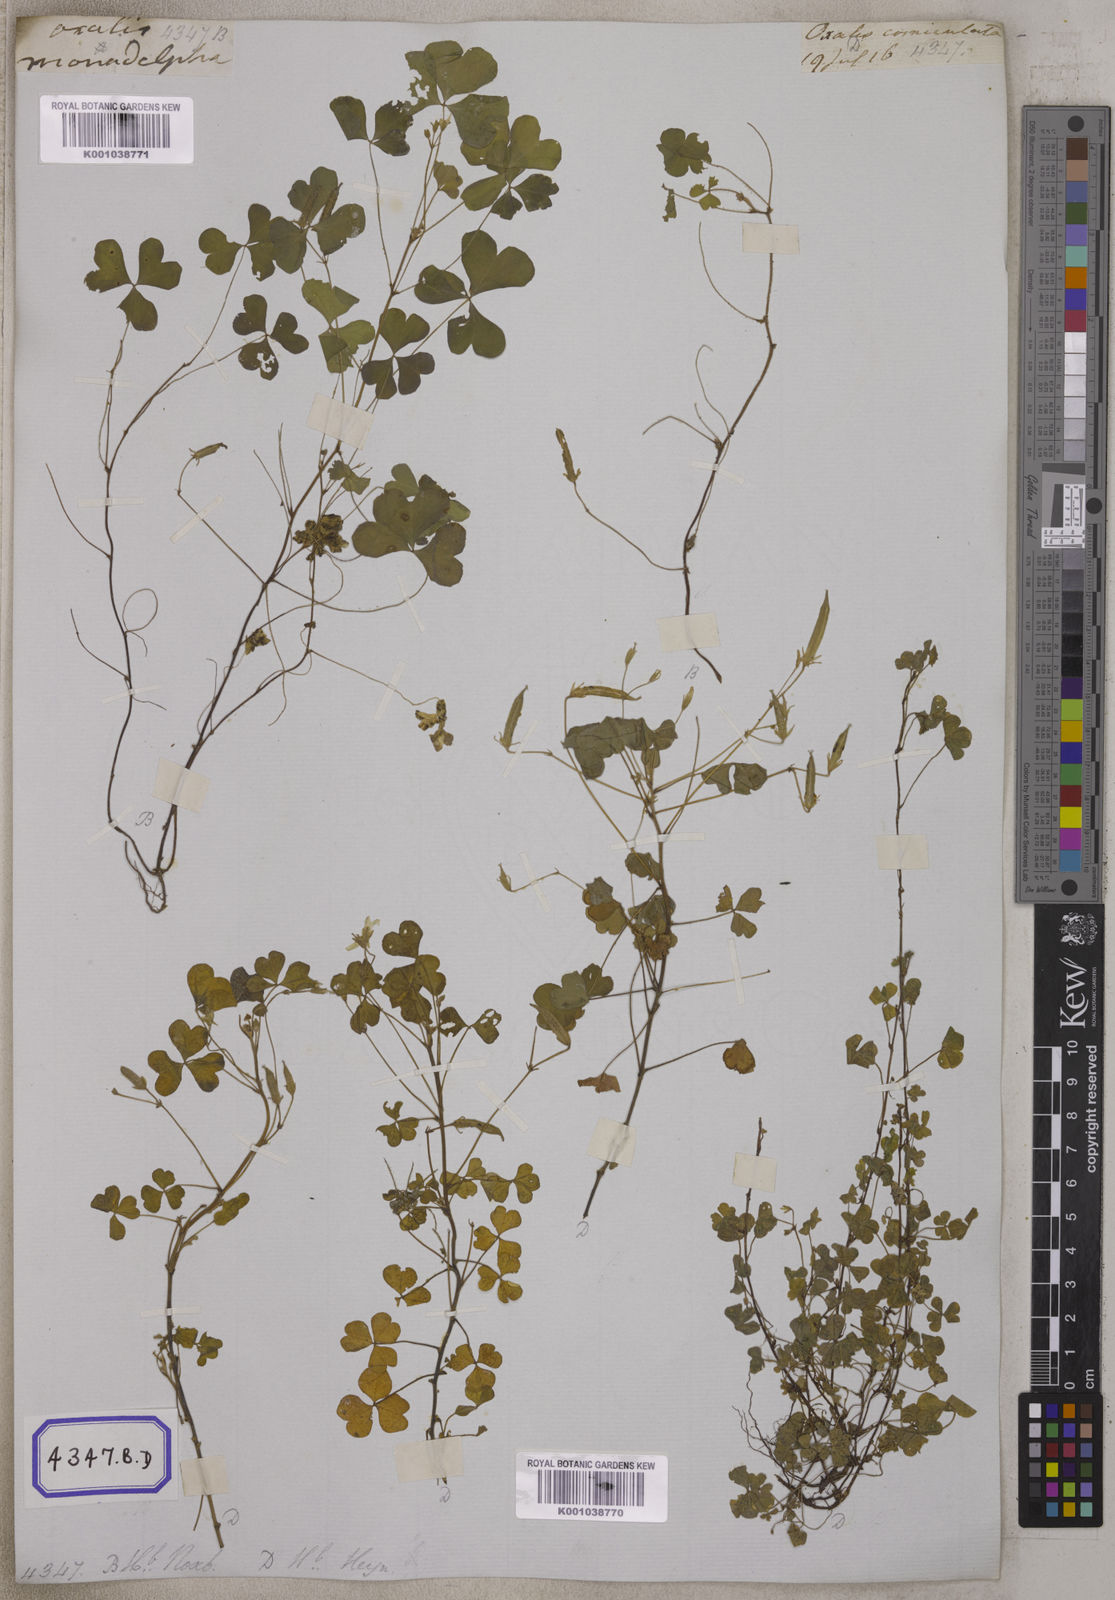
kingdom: Plantae
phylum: Tracheophyta
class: Magnoliopsida
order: Oxalidales
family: Oxalidaceae
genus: Oxalis
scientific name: Oxalis corniculata
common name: Procumbent yellow-sorrel
